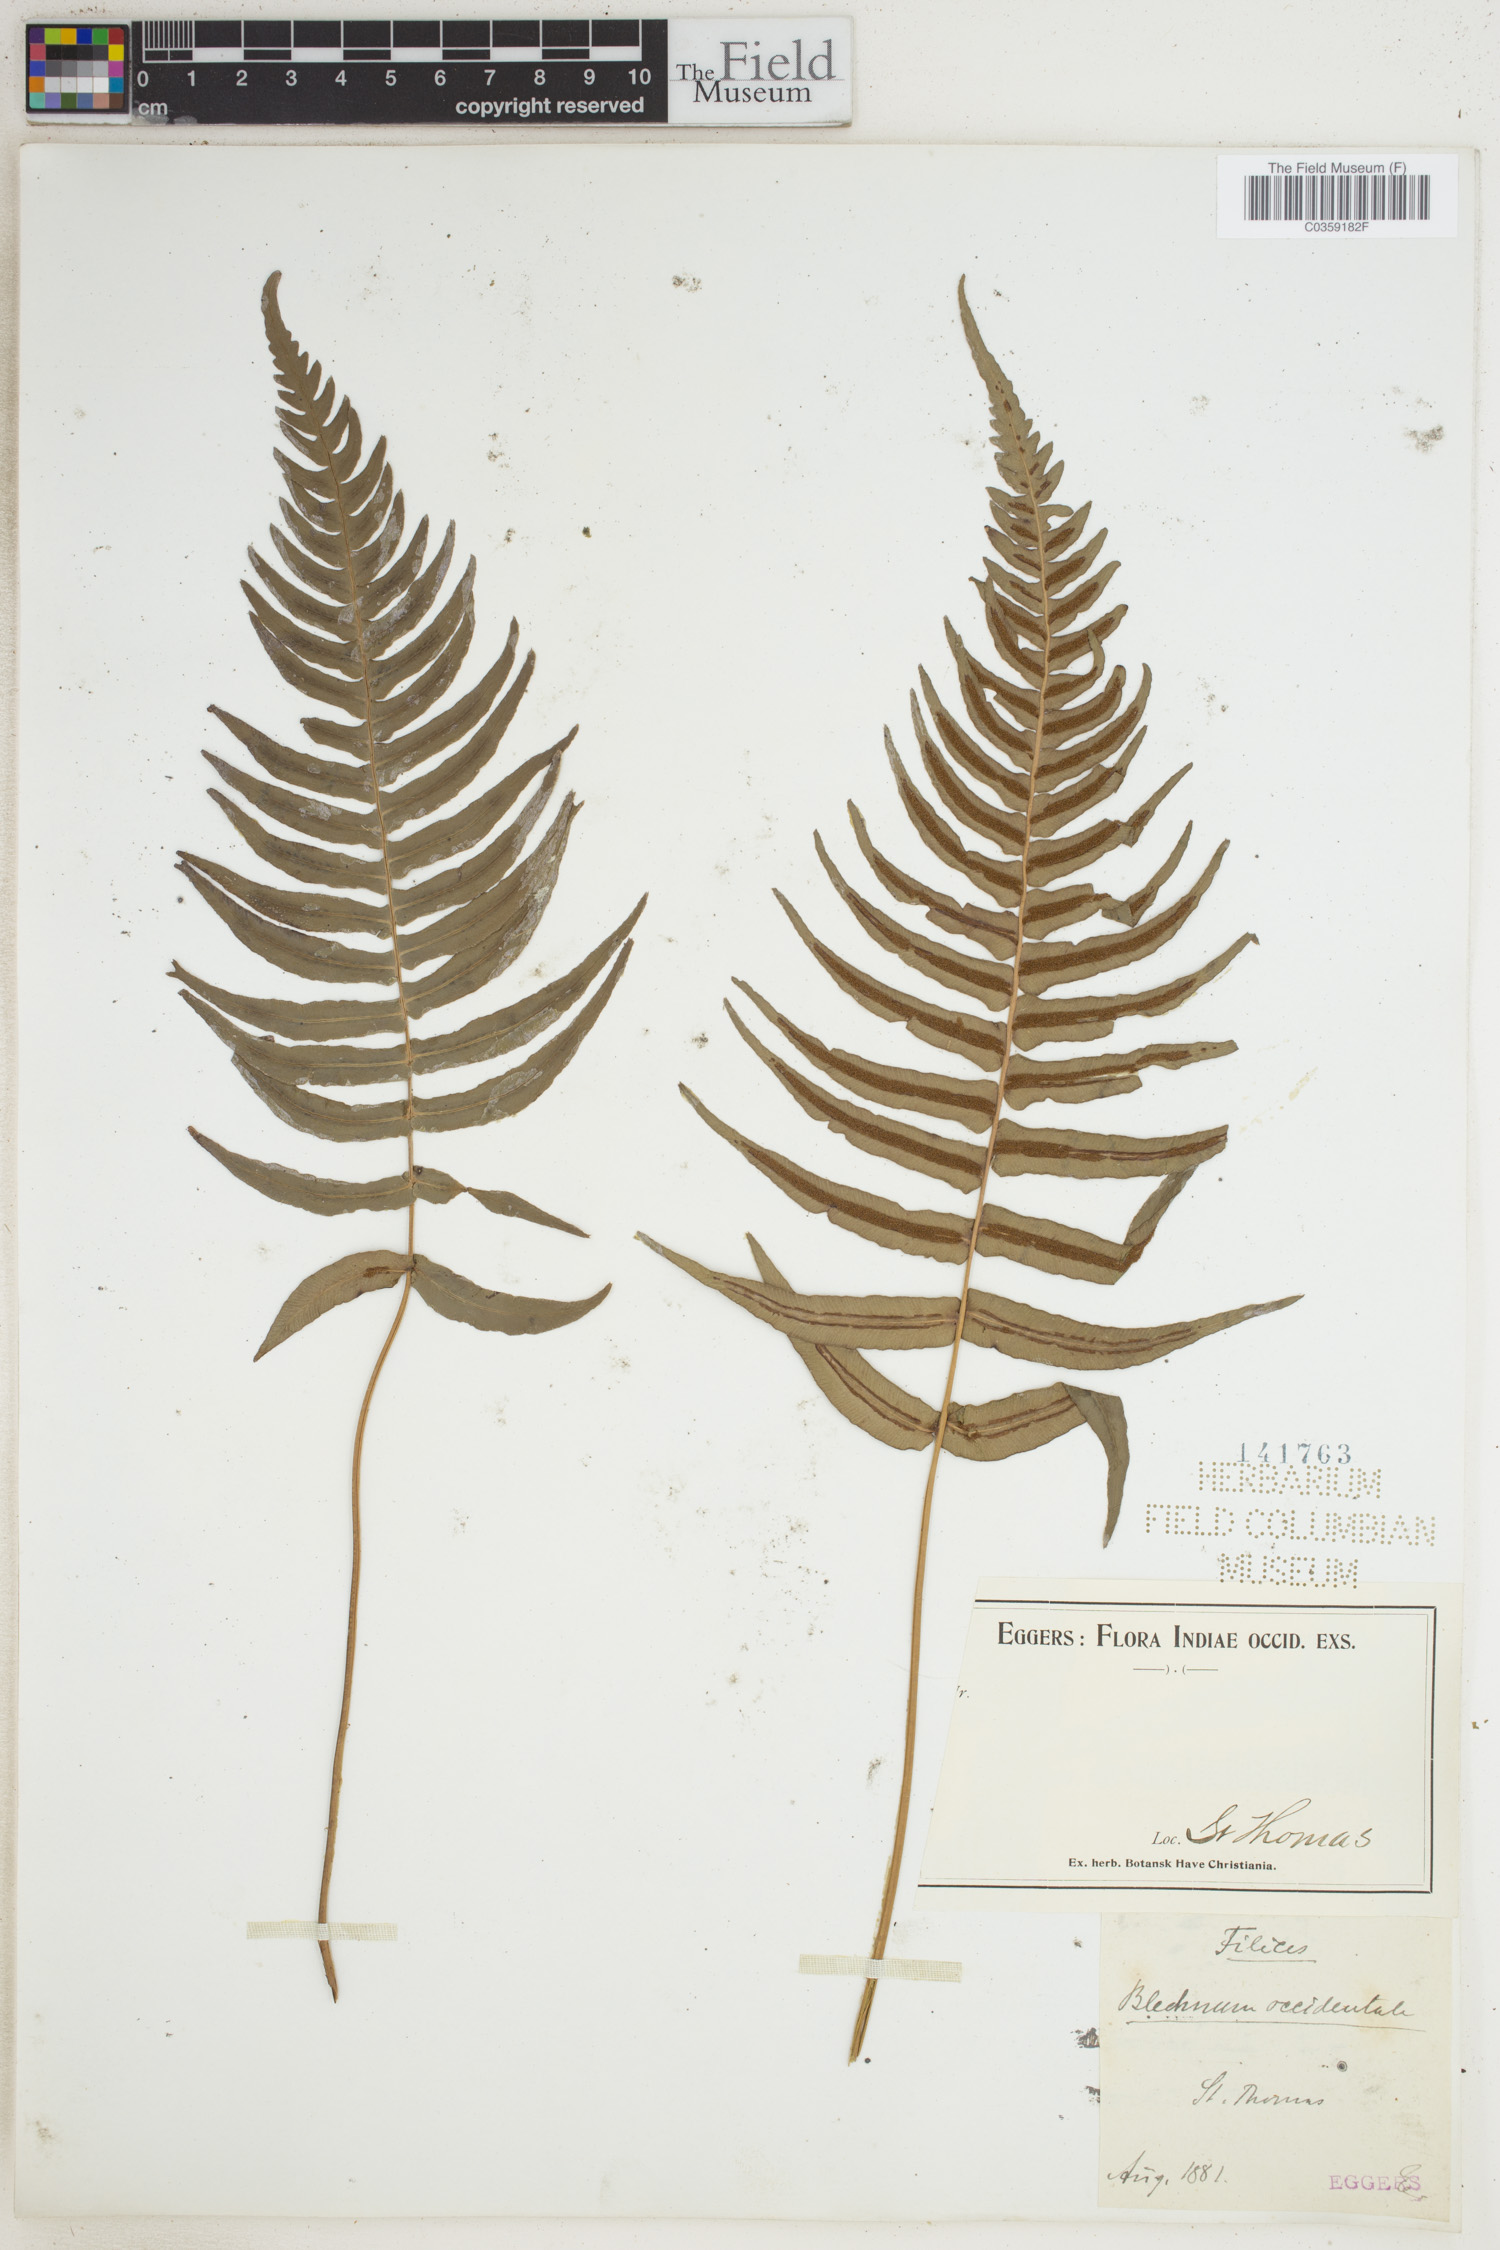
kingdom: Plantae
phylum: Tracheophyta
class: Polypodiopsida
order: Polypodiales
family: Blechnaceae
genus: Blechnum
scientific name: Blechnum occidentale
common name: Hammock fern
